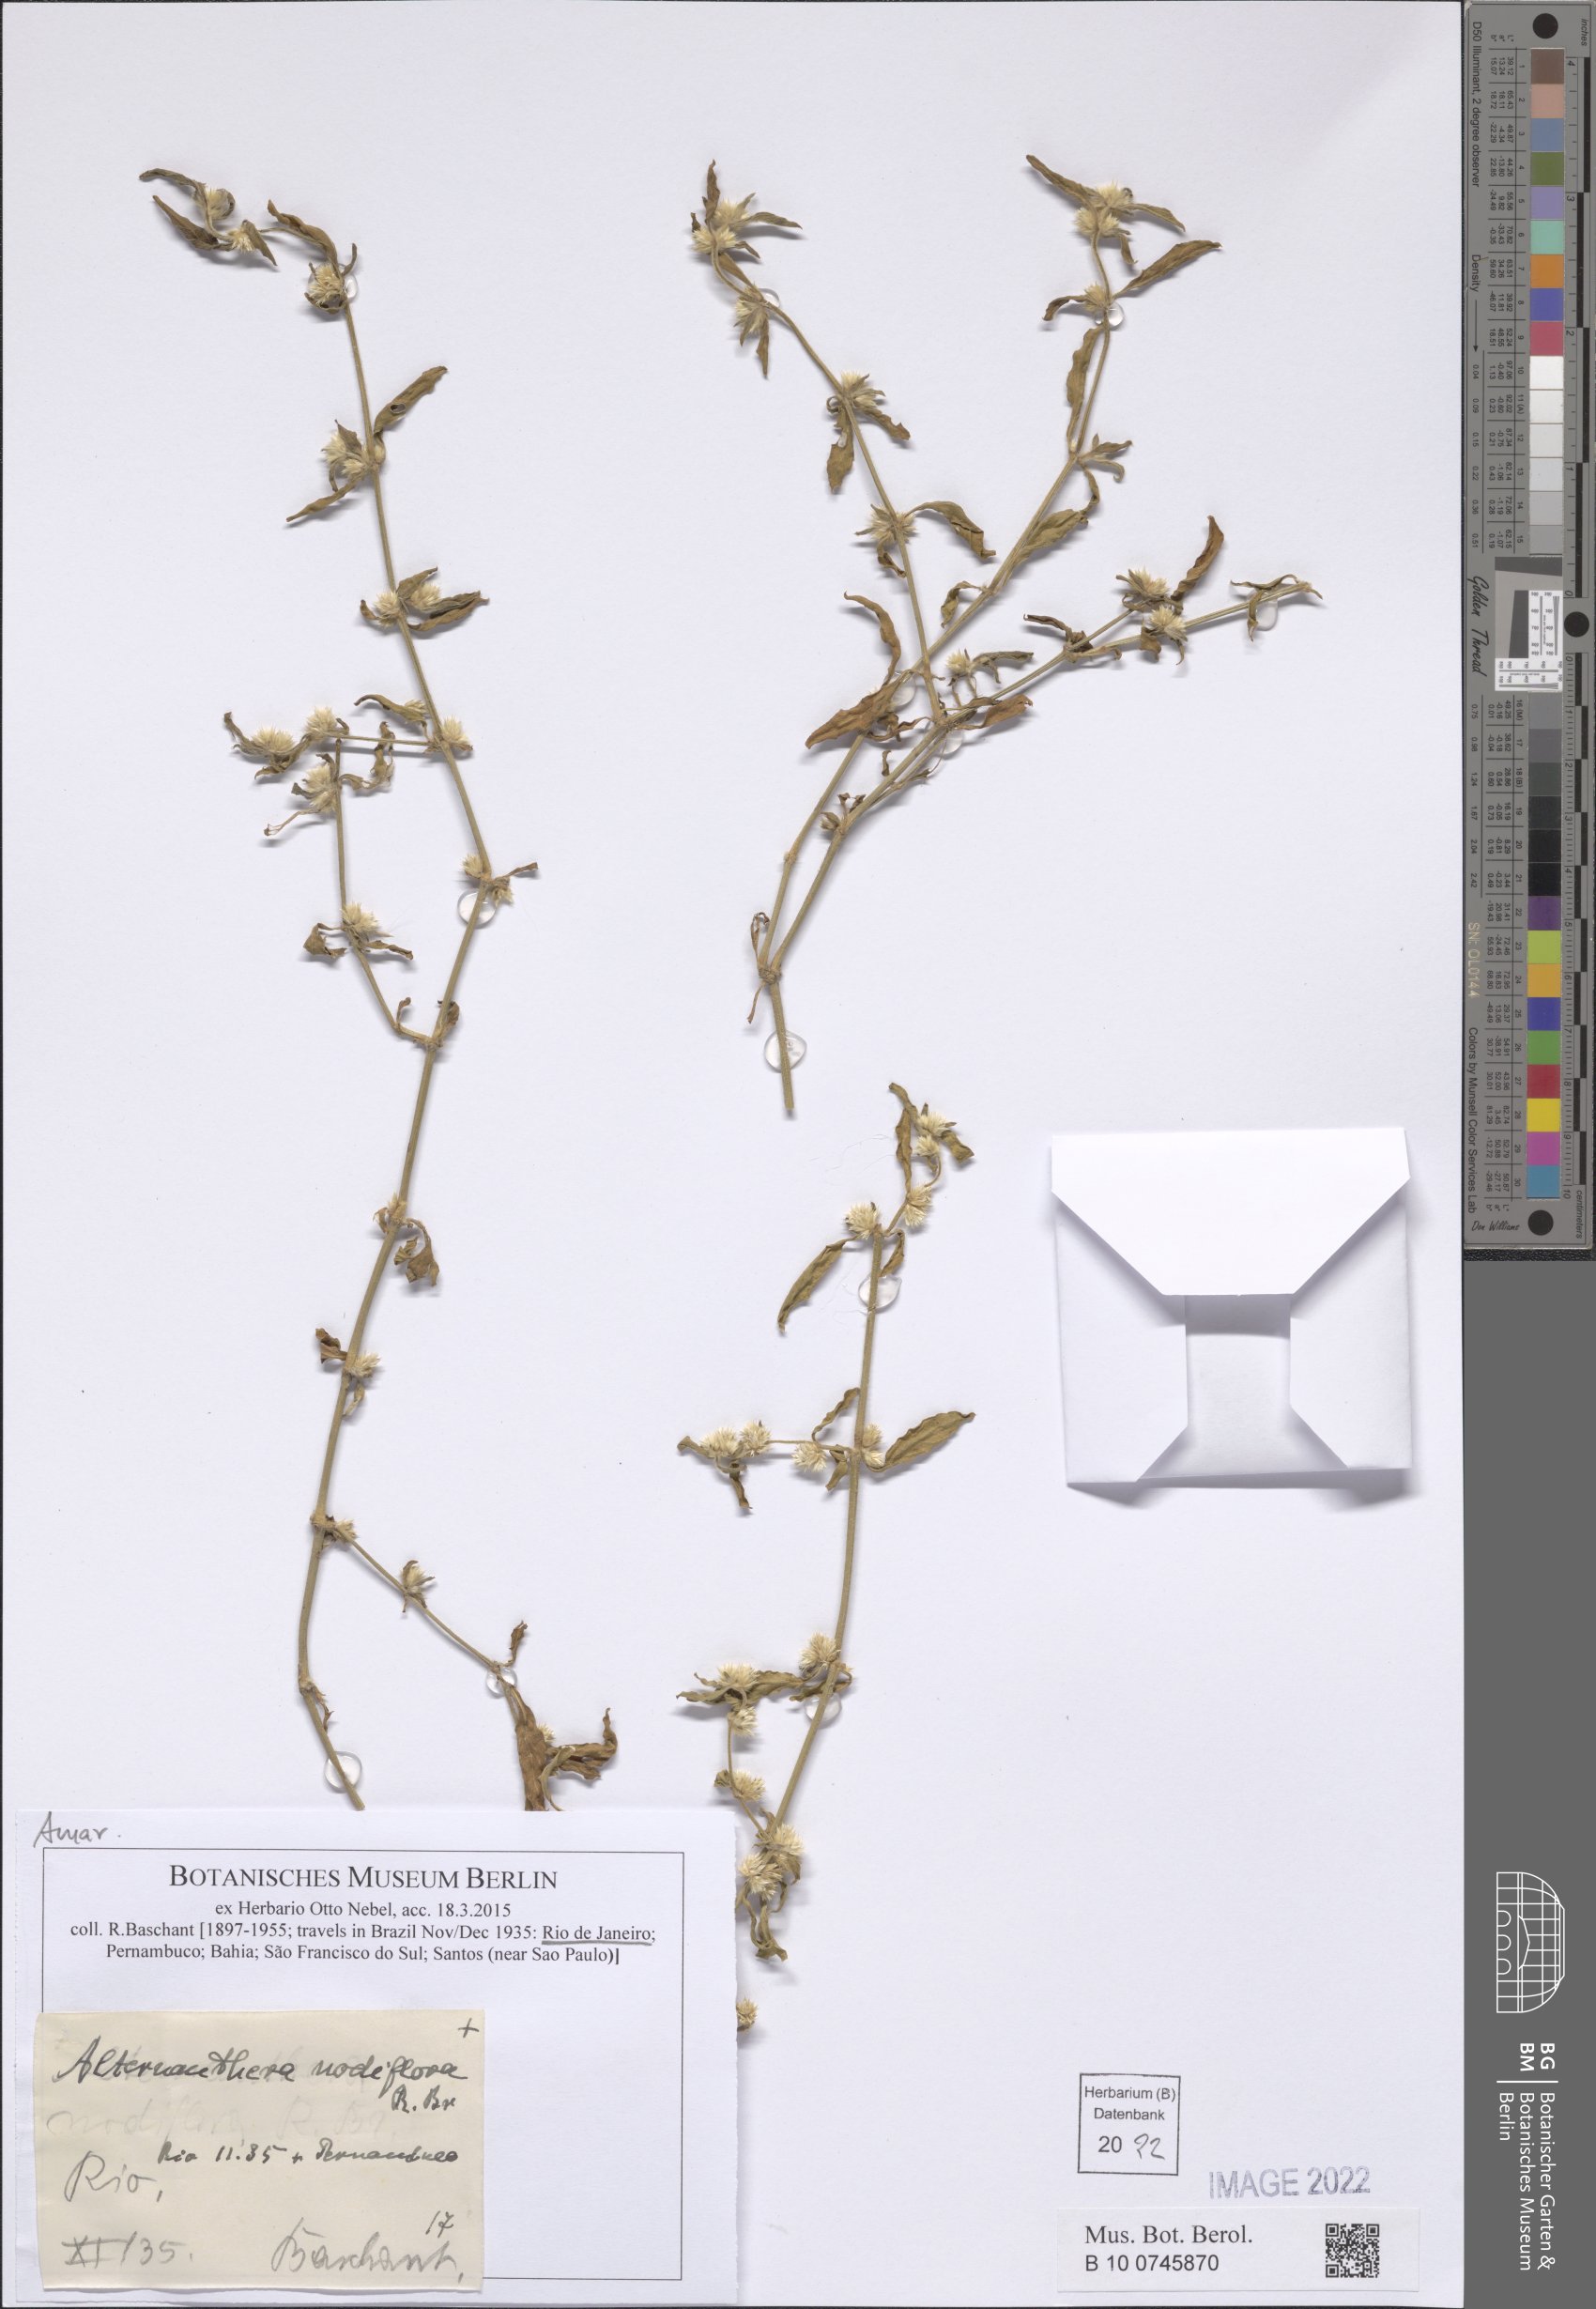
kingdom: Plantae
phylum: Tracheophyta
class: Magnoliopsida
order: Caryophyllales
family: Amaranthaceae
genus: Alternanthera
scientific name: Alternanthera sessilis
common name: Sessile joyweed
